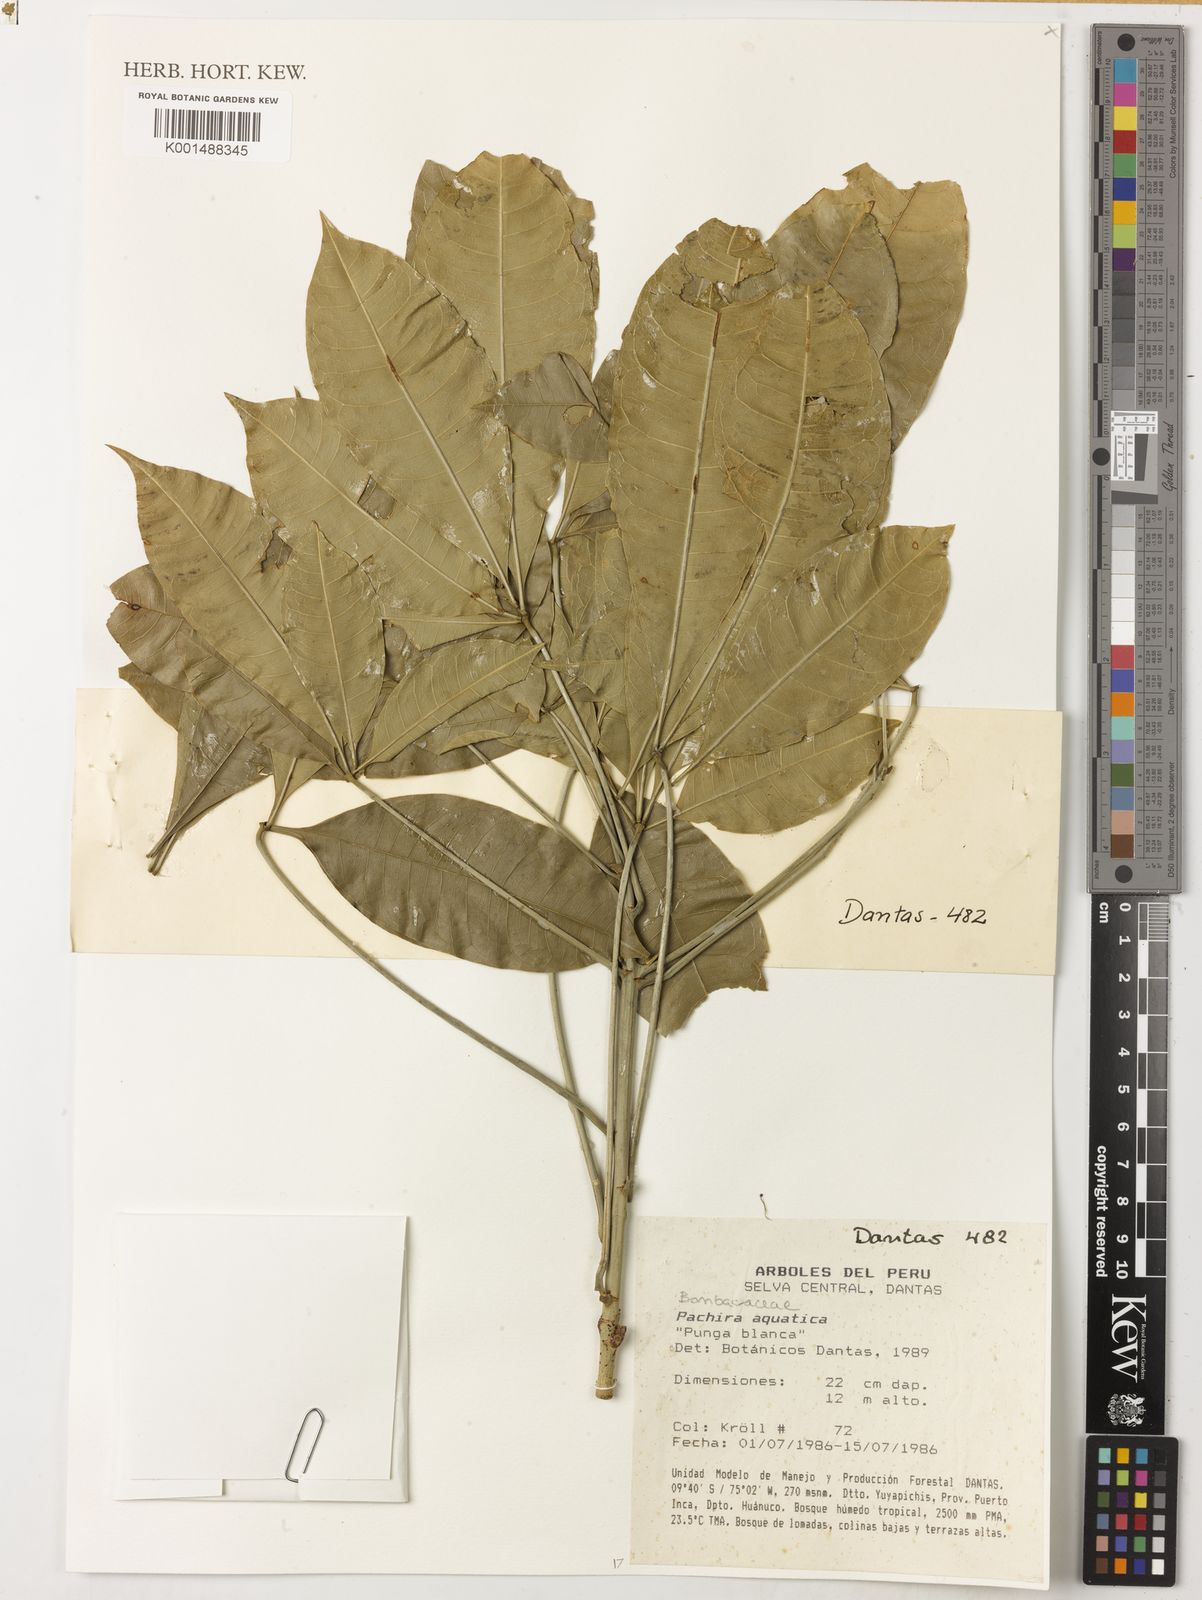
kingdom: Plantae
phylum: Tracheophyta
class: Magnoliopsida
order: Malvales
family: Malvaceae
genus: Pachira
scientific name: Pachira aquatica
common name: Provision-tree
